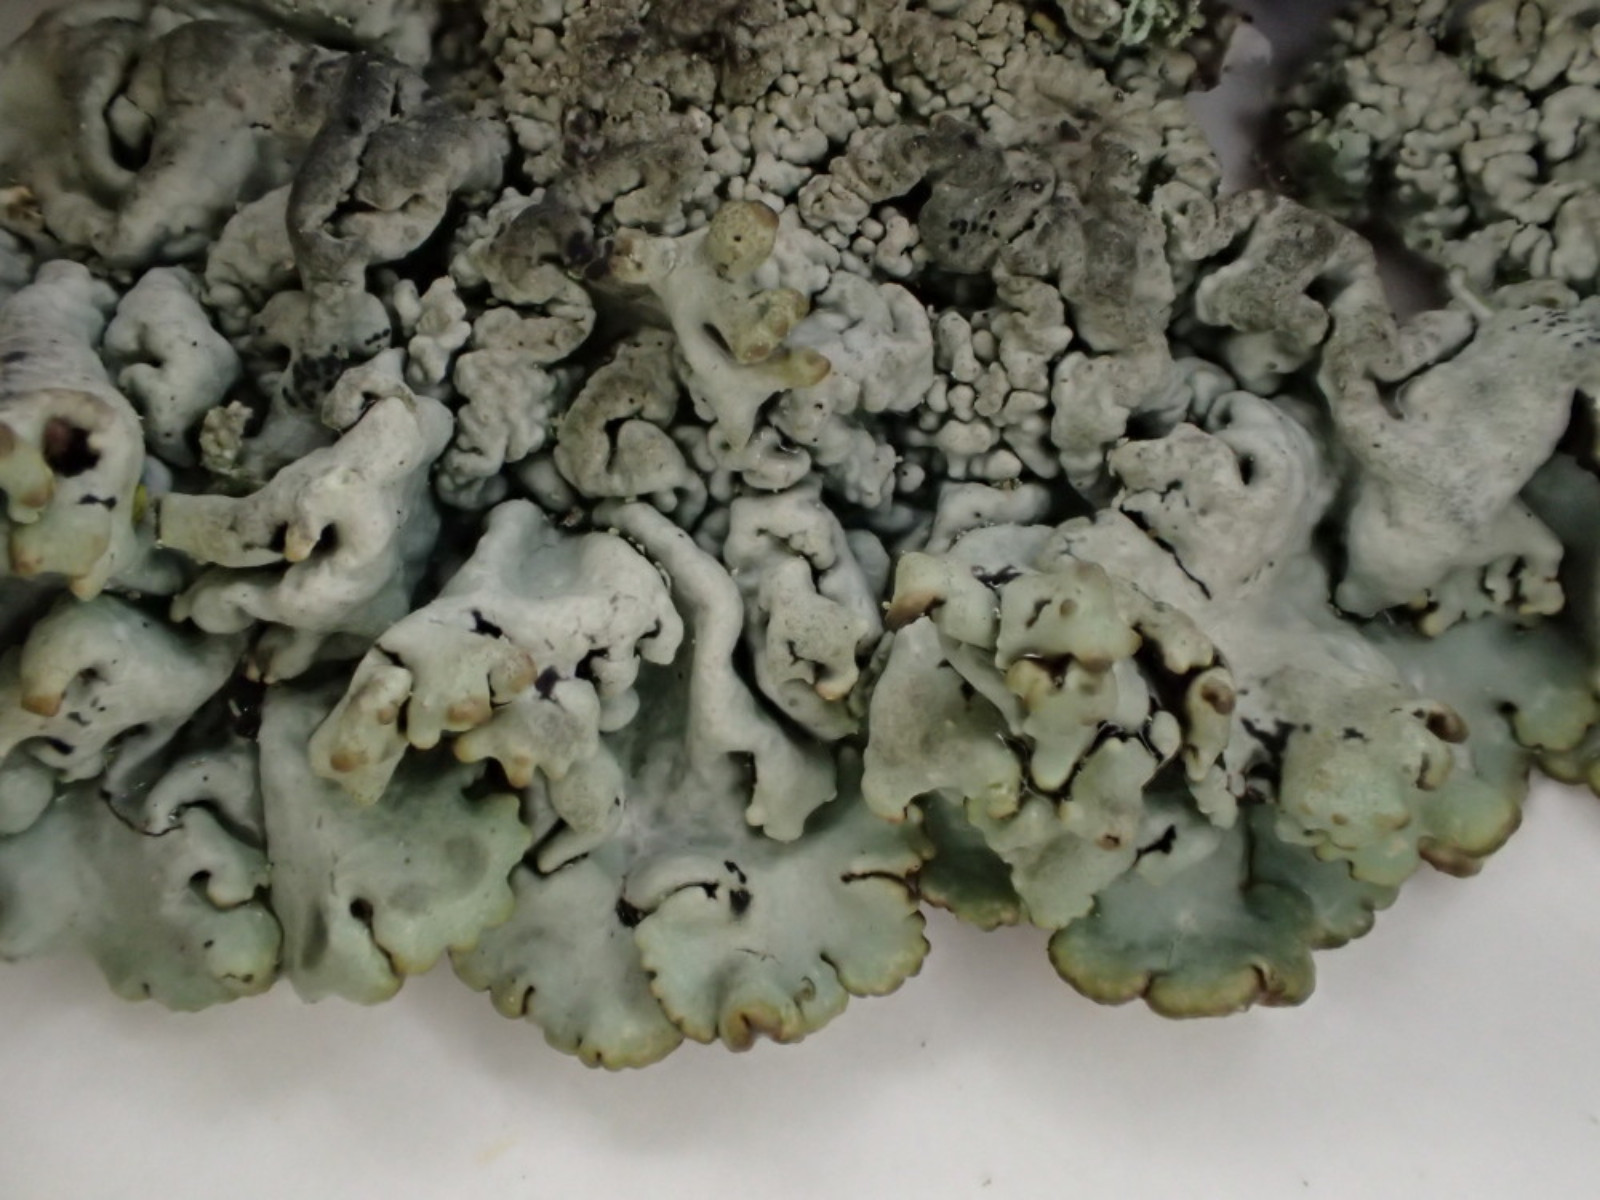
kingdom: Fungi
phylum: Ascomycota
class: Lecanoromycetes
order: Lecanorales
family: Parmeliaceae
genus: Hypogymnia
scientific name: Hypogymnia physodes
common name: almindelig kvistlav
